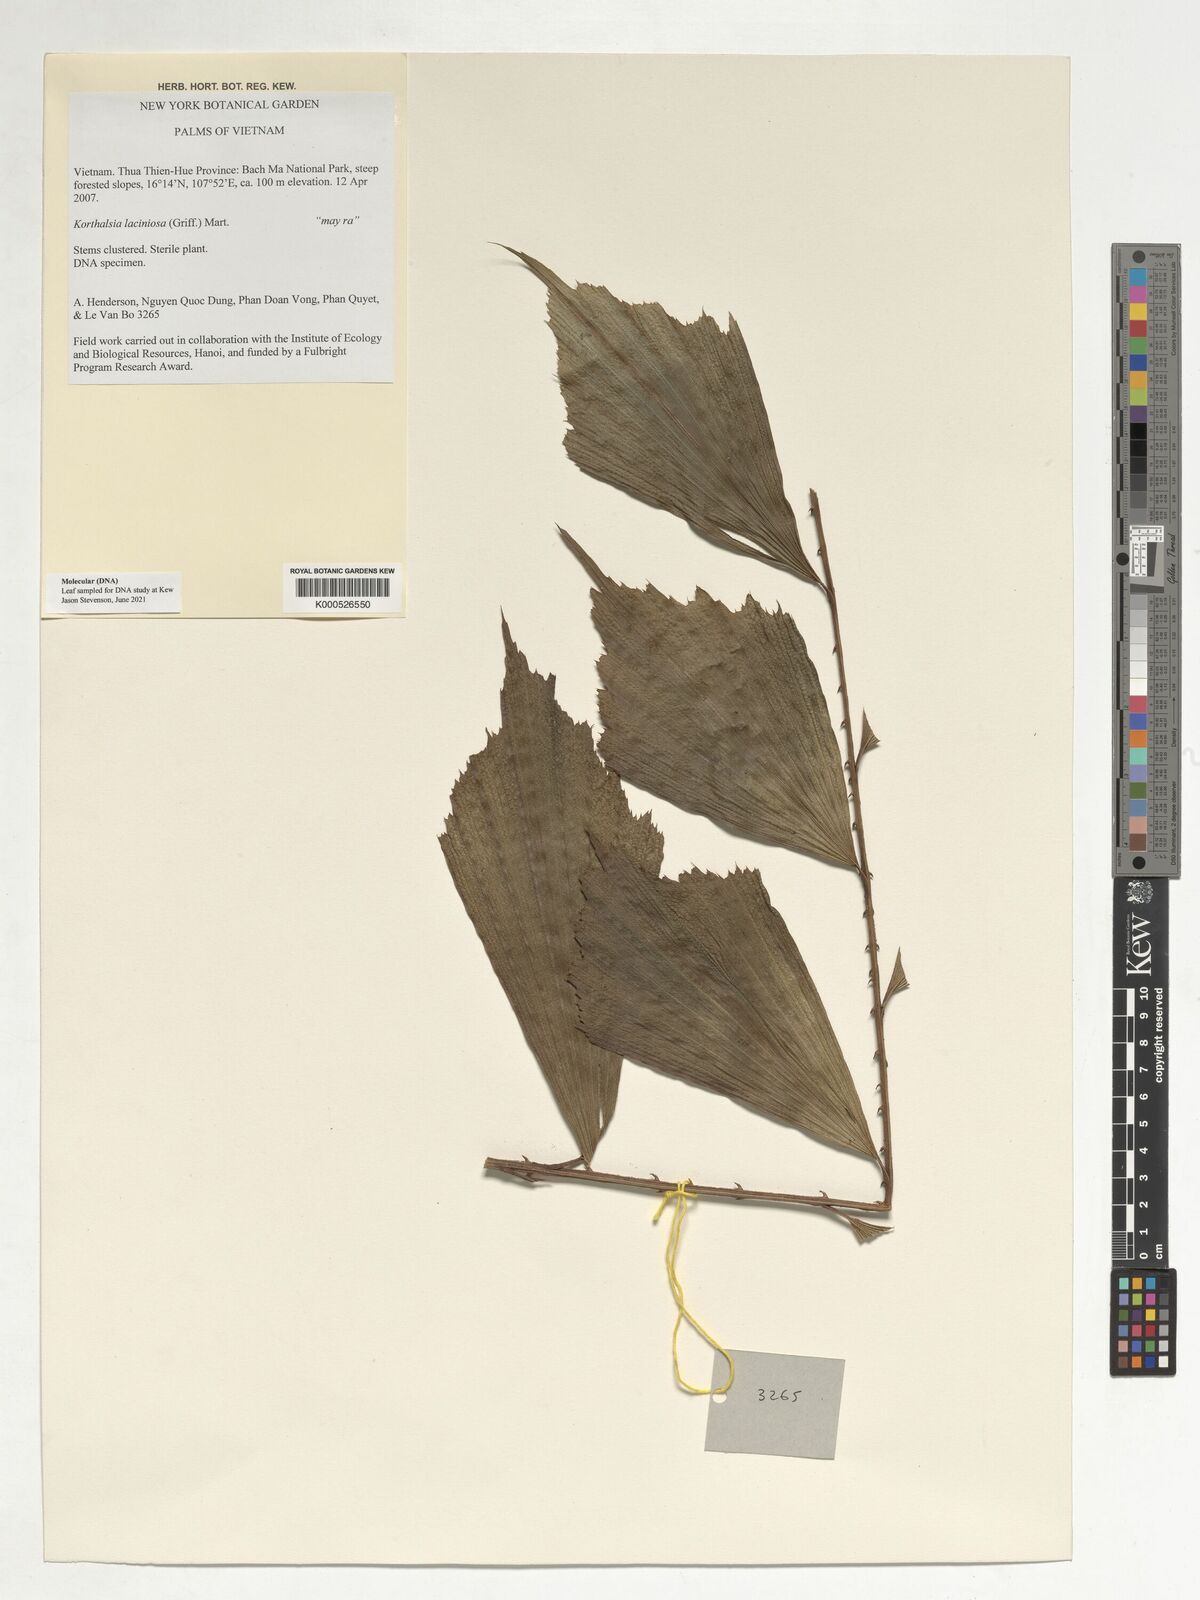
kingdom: Plantae
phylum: Tracheophyta
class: Liliopsida
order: Arecales
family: Arecaceae
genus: Korthalsia
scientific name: Korthalsia minor
